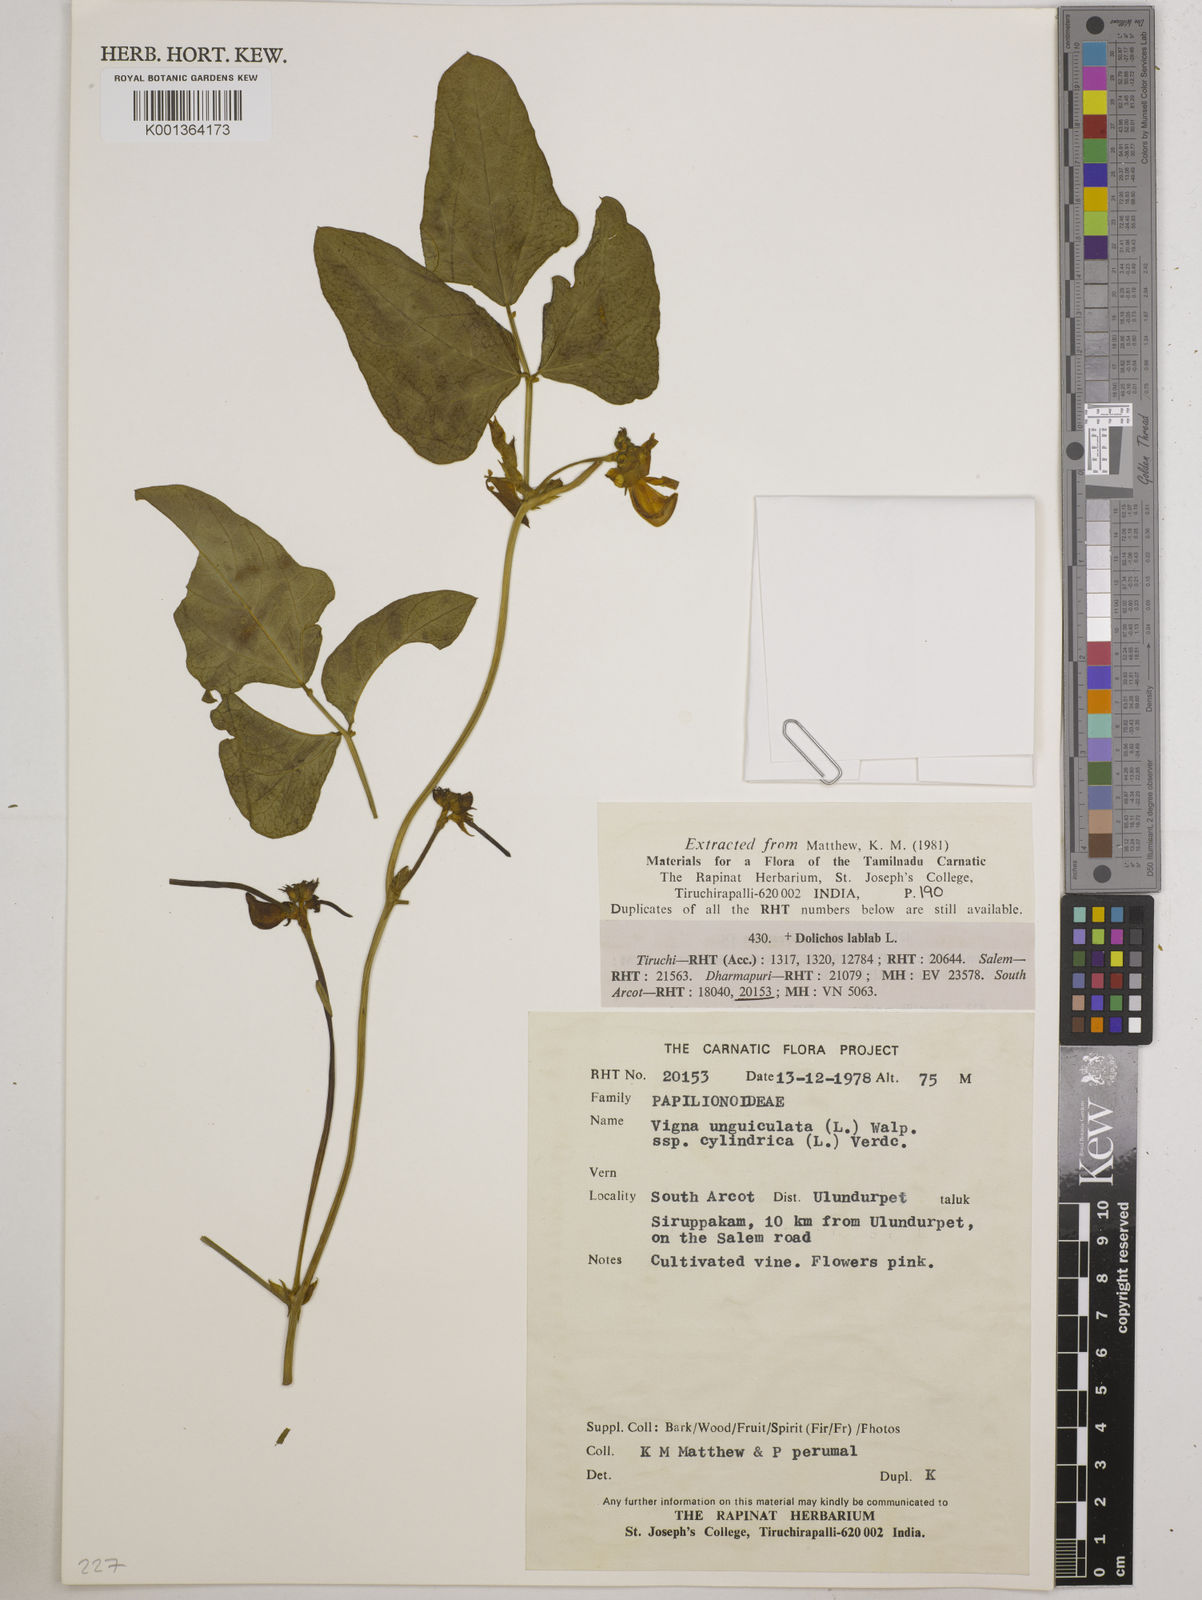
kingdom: Plantae
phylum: Tracheophyta
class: Magnoliopsida
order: Fabales
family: Fabaceae
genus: Vigna
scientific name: Vigna
